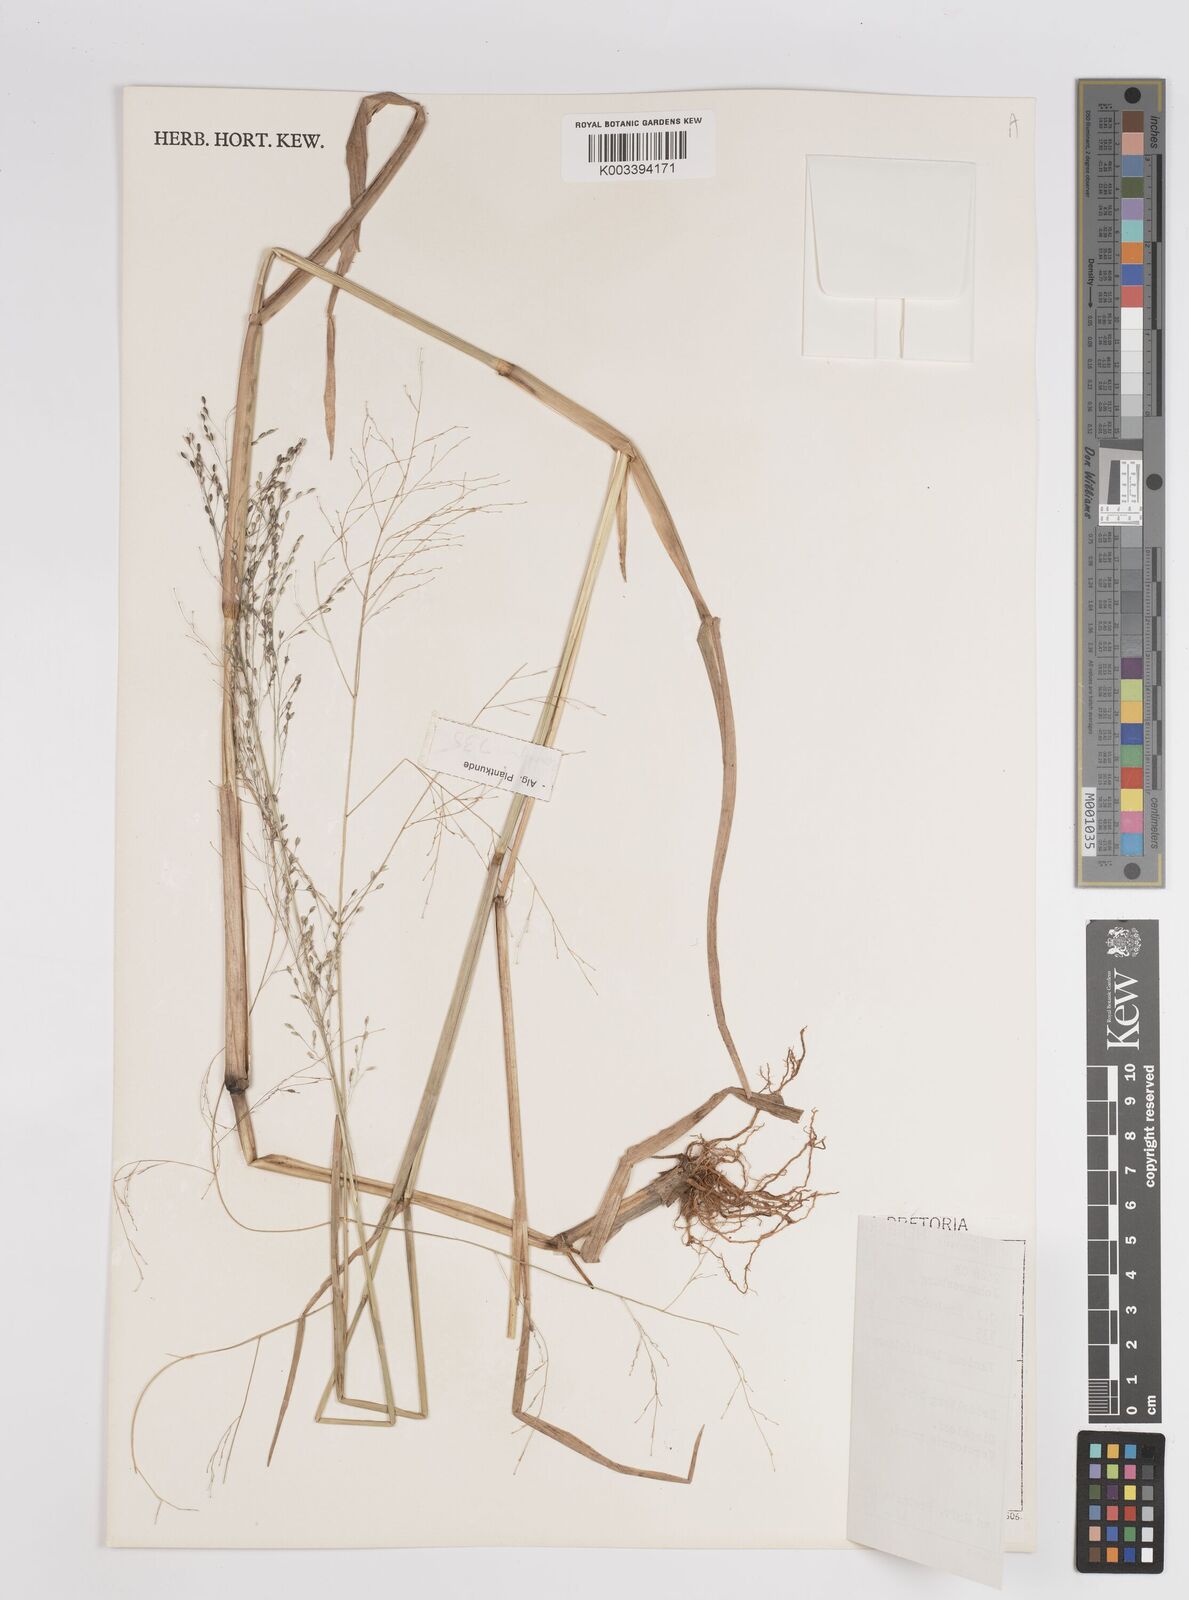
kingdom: Plantae
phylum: Tracheophyta
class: Liliopsida
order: Poales
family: Poaceae
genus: Panicum
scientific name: Panicum schinzii
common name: Sweet grass
